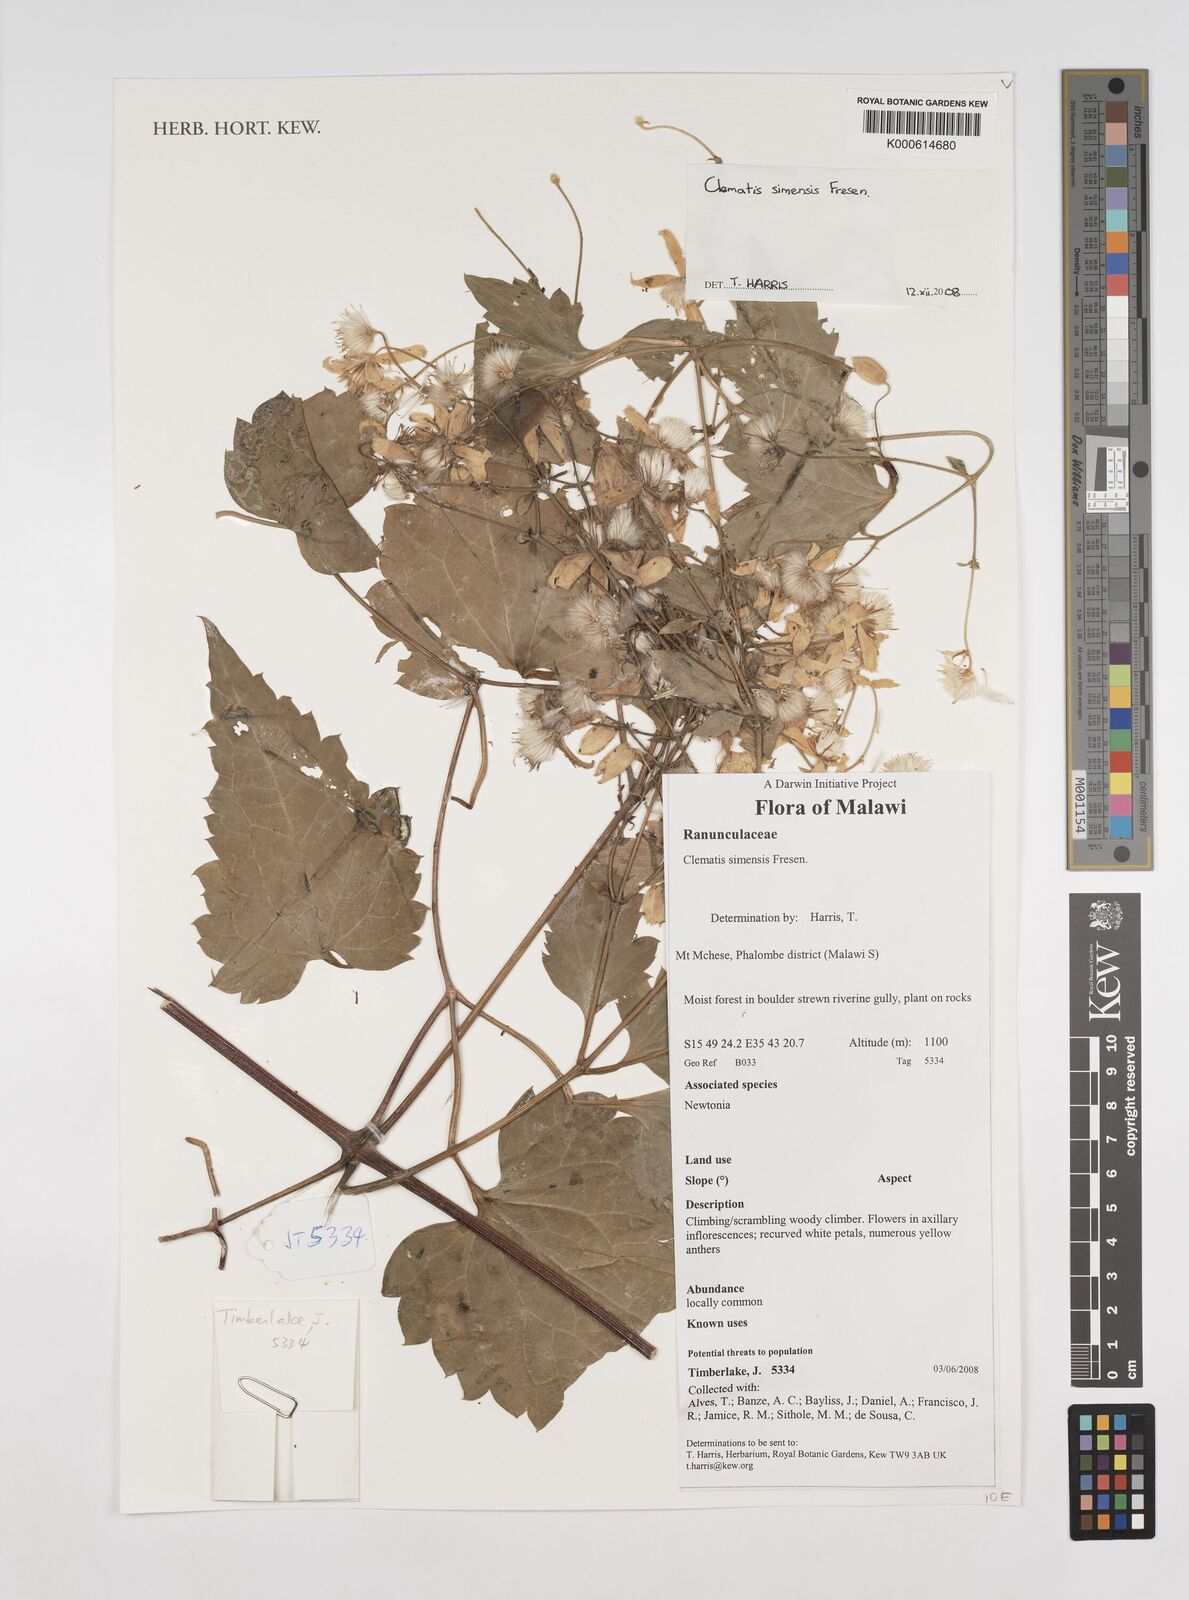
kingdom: Plantae
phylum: Tracheophyta
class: Magnoliopsida
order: Ranunculales
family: Ranunculaceae
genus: Clematis
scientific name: Clematis simensis
